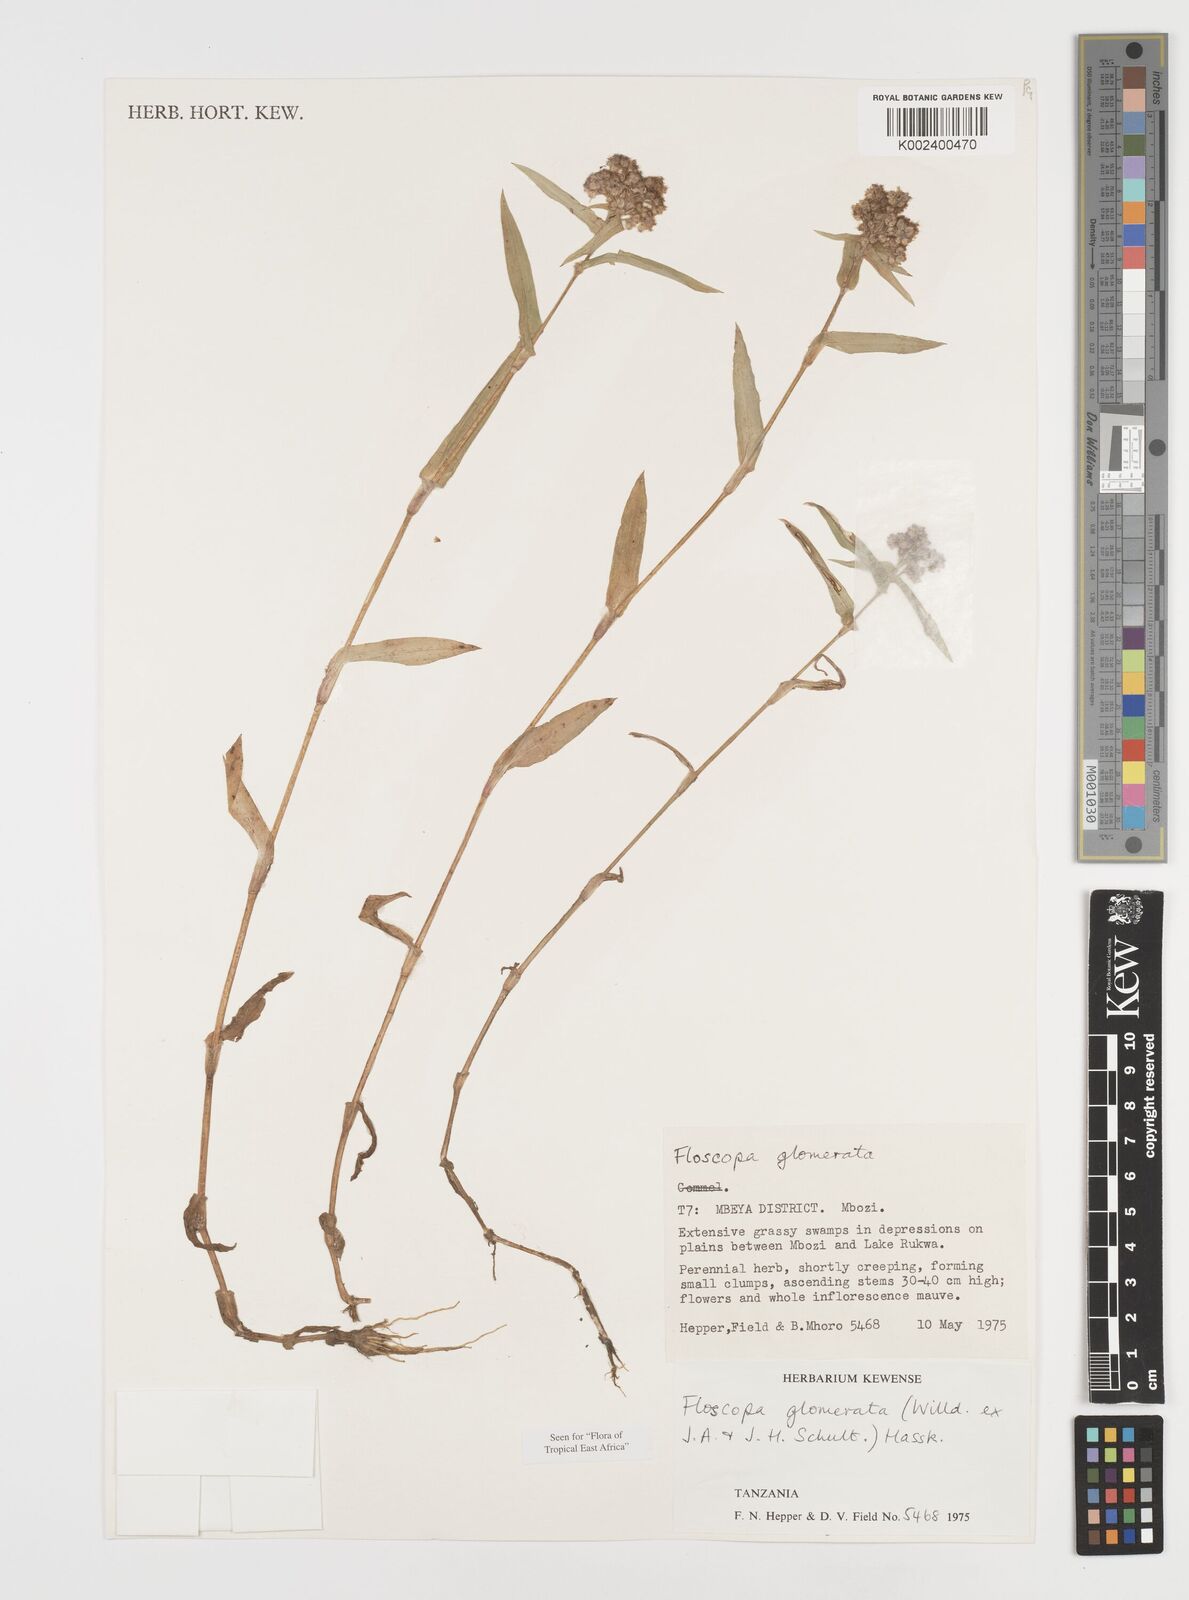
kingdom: Plantae
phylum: Tracheophyta
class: Liliopsida
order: Commelinales
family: Commelinaceae
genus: Floscopa
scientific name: Floscopa glomerata
